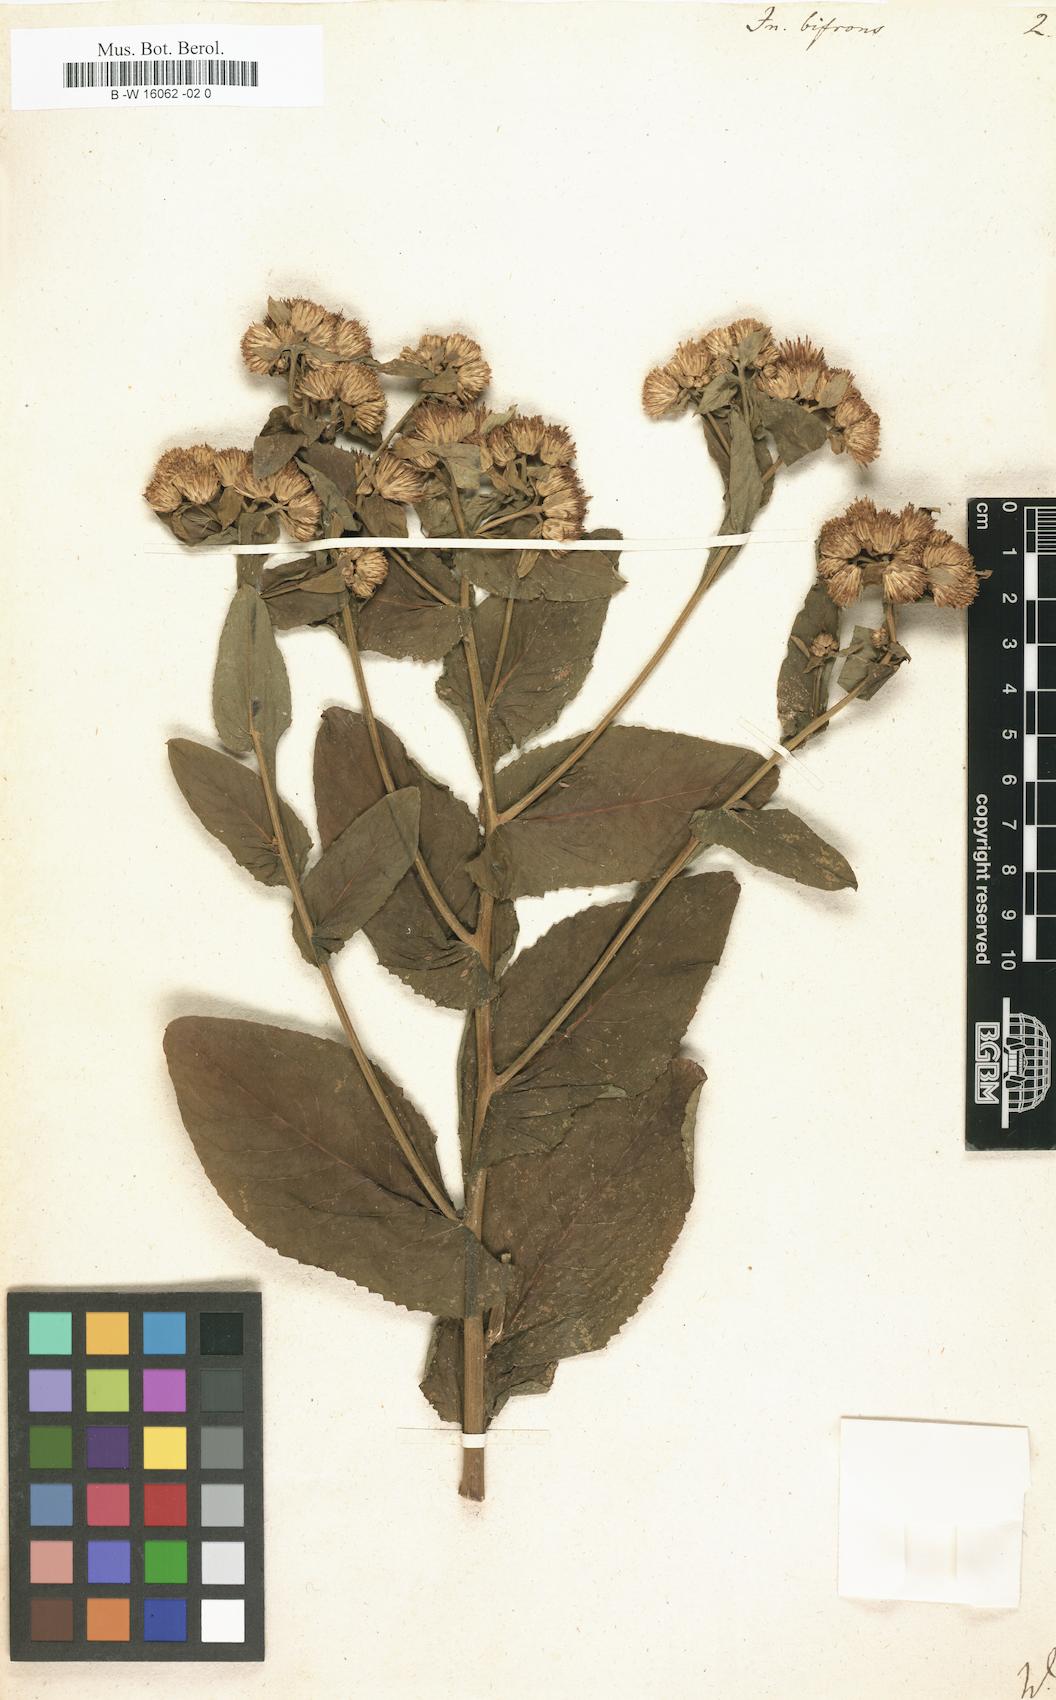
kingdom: Plantae
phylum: Tracheophyta
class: Magnoliopsida
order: Asterales
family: Asteraceae
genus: Pentanema
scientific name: Pentanema bifrons
